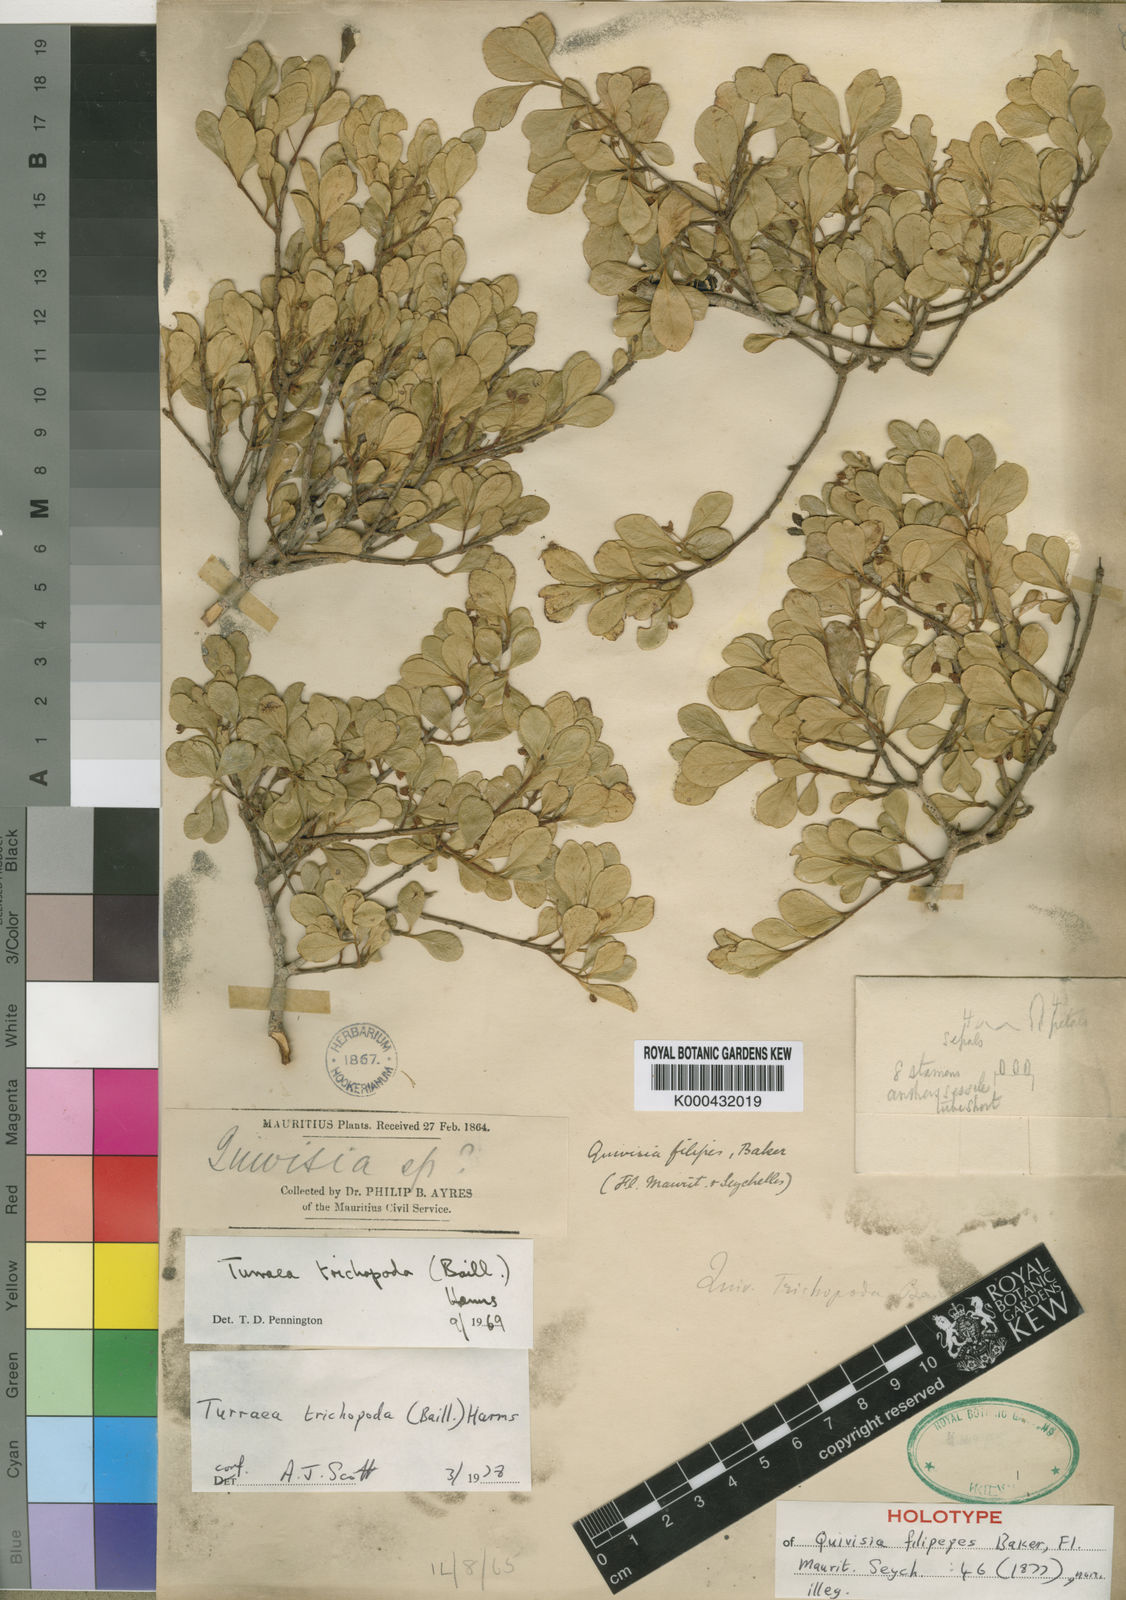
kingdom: Plantae
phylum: Tracheophyta
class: Magnoliopsida
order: Sapindales
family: Meliaceae
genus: Turraea
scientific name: Turraea trichopoda
